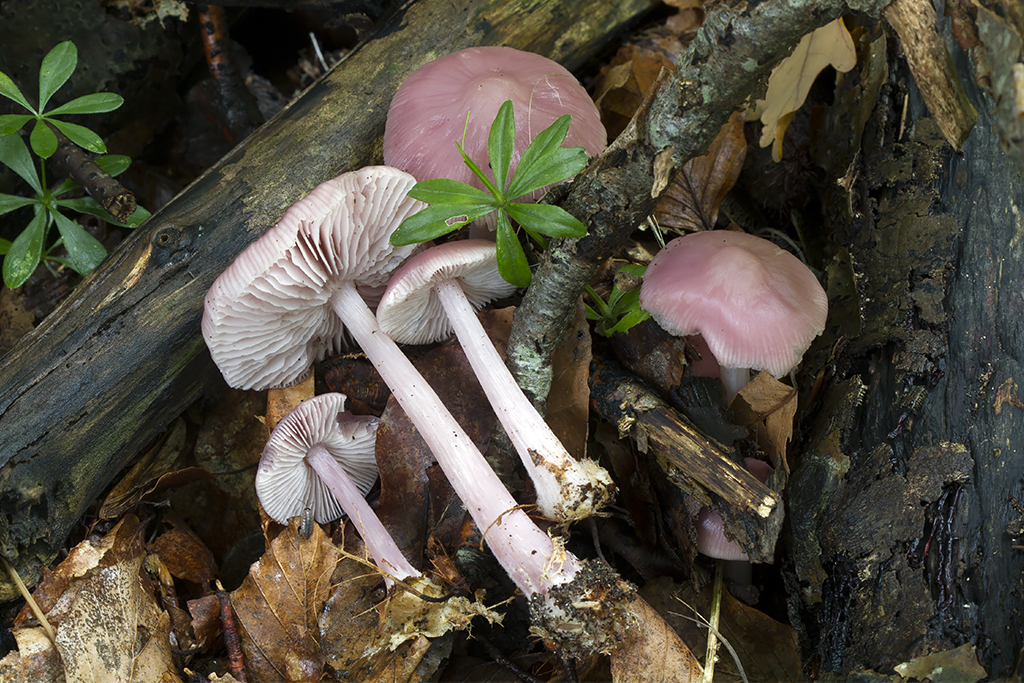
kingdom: Fungi
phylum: Basidiomycota
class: Agaricomycetes
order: Agaricales
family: Mycenaceae
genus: Mycena
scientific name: Mycena rosea
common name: rosa huesvamp
